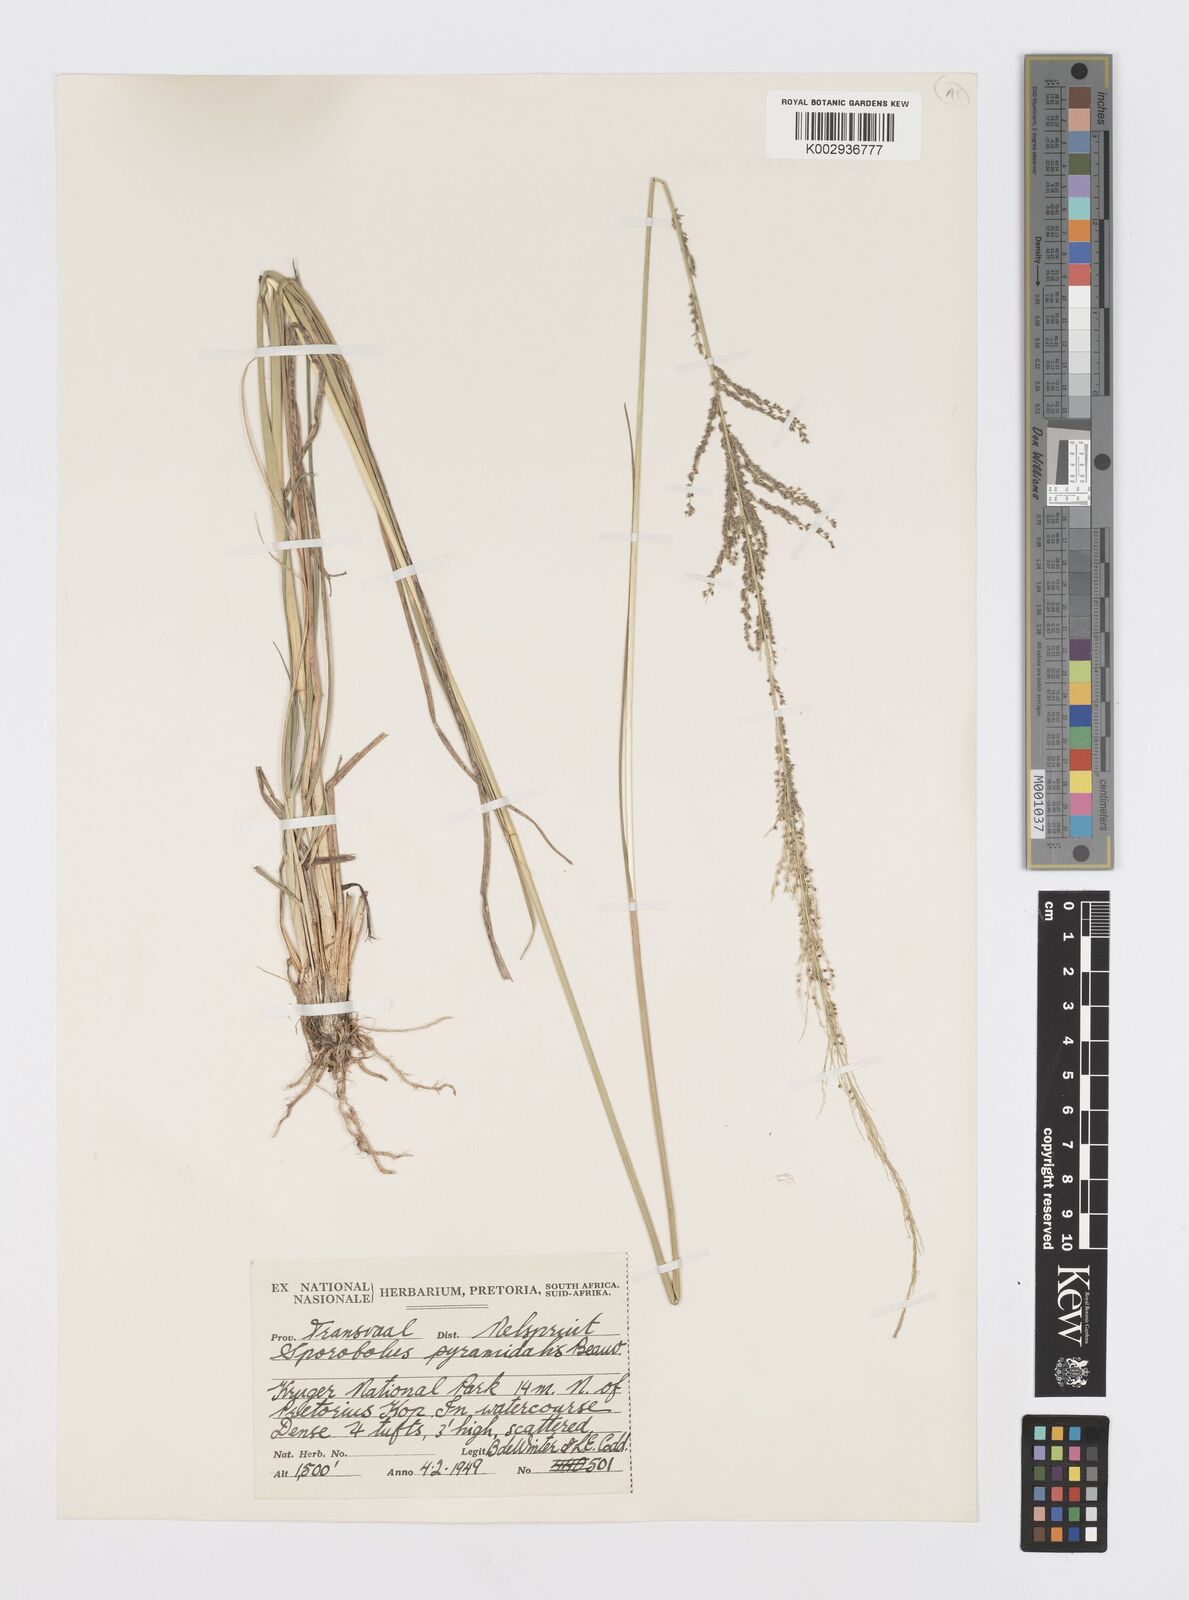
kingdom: Plantae
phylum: Tracheophyta
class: Liliopsida
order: Poales
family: Poaceae
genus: Sporobolus
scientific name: Sporobolus pyramidalis
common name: West indian dropseed
